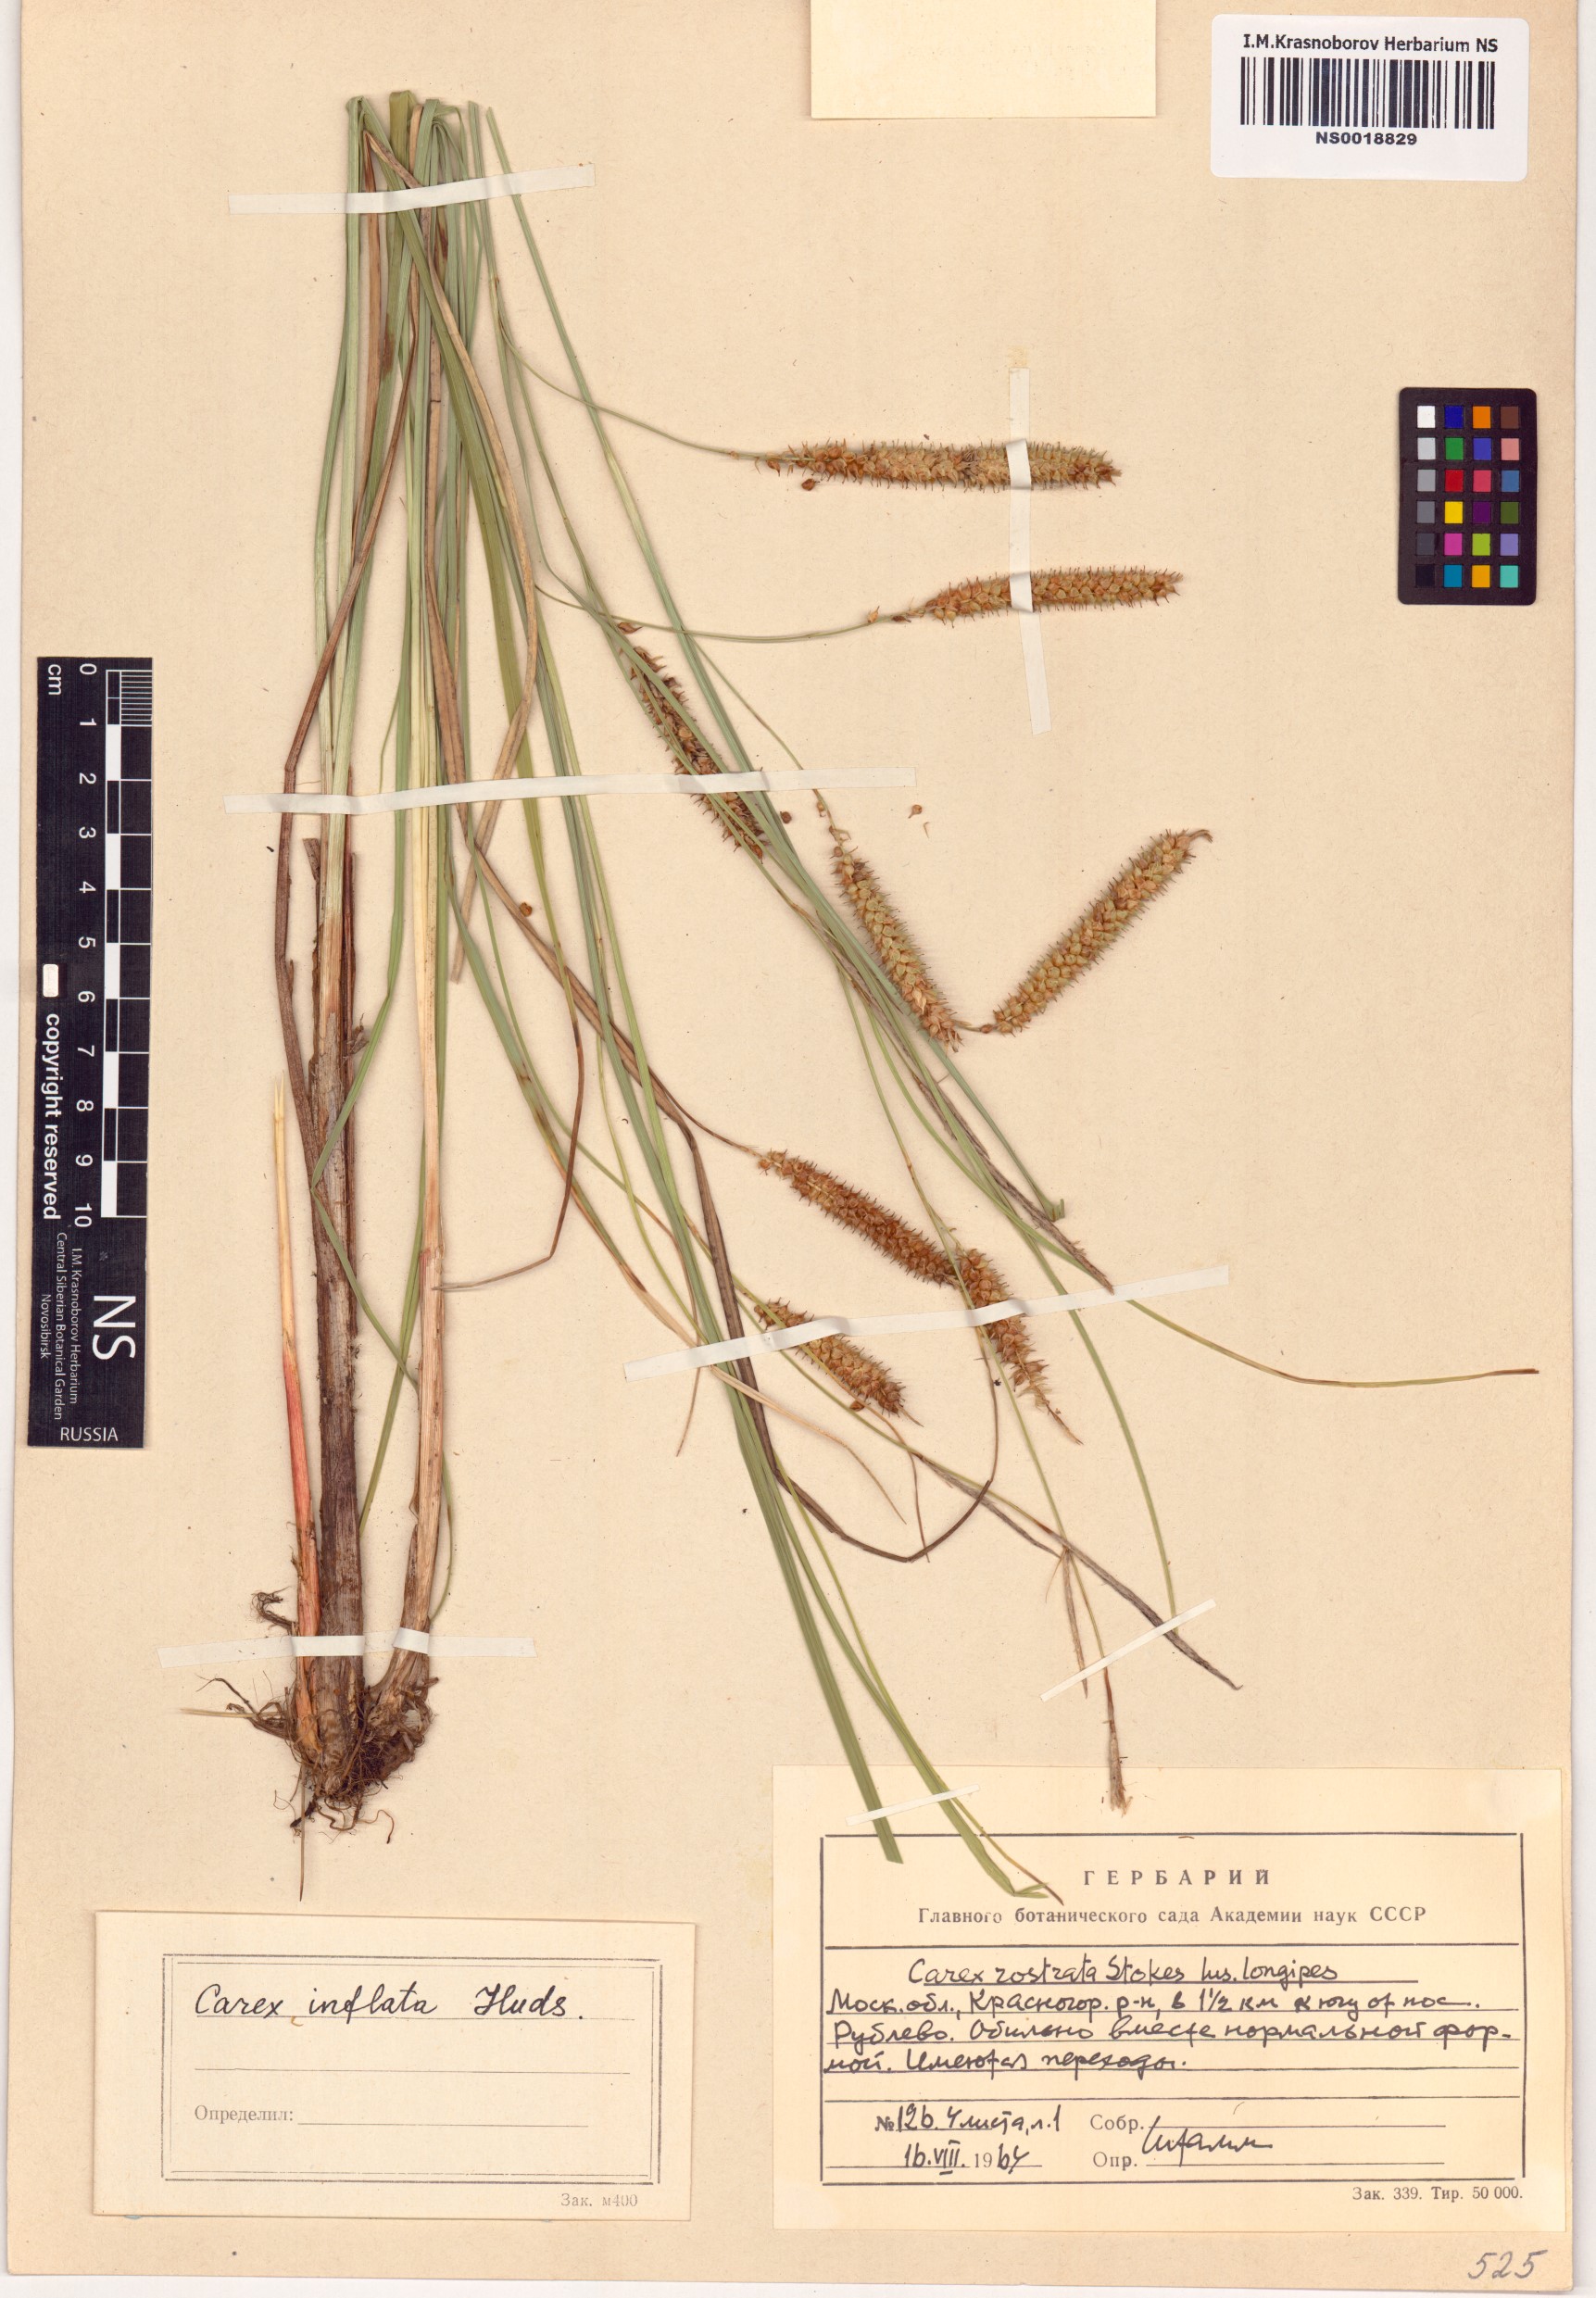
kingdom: Plantae
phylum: Tracheophyta
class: Liliopsida
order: Poales
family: Cyperaceae
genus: Carex
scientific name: Carex rostrata
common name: Bottle sedge
